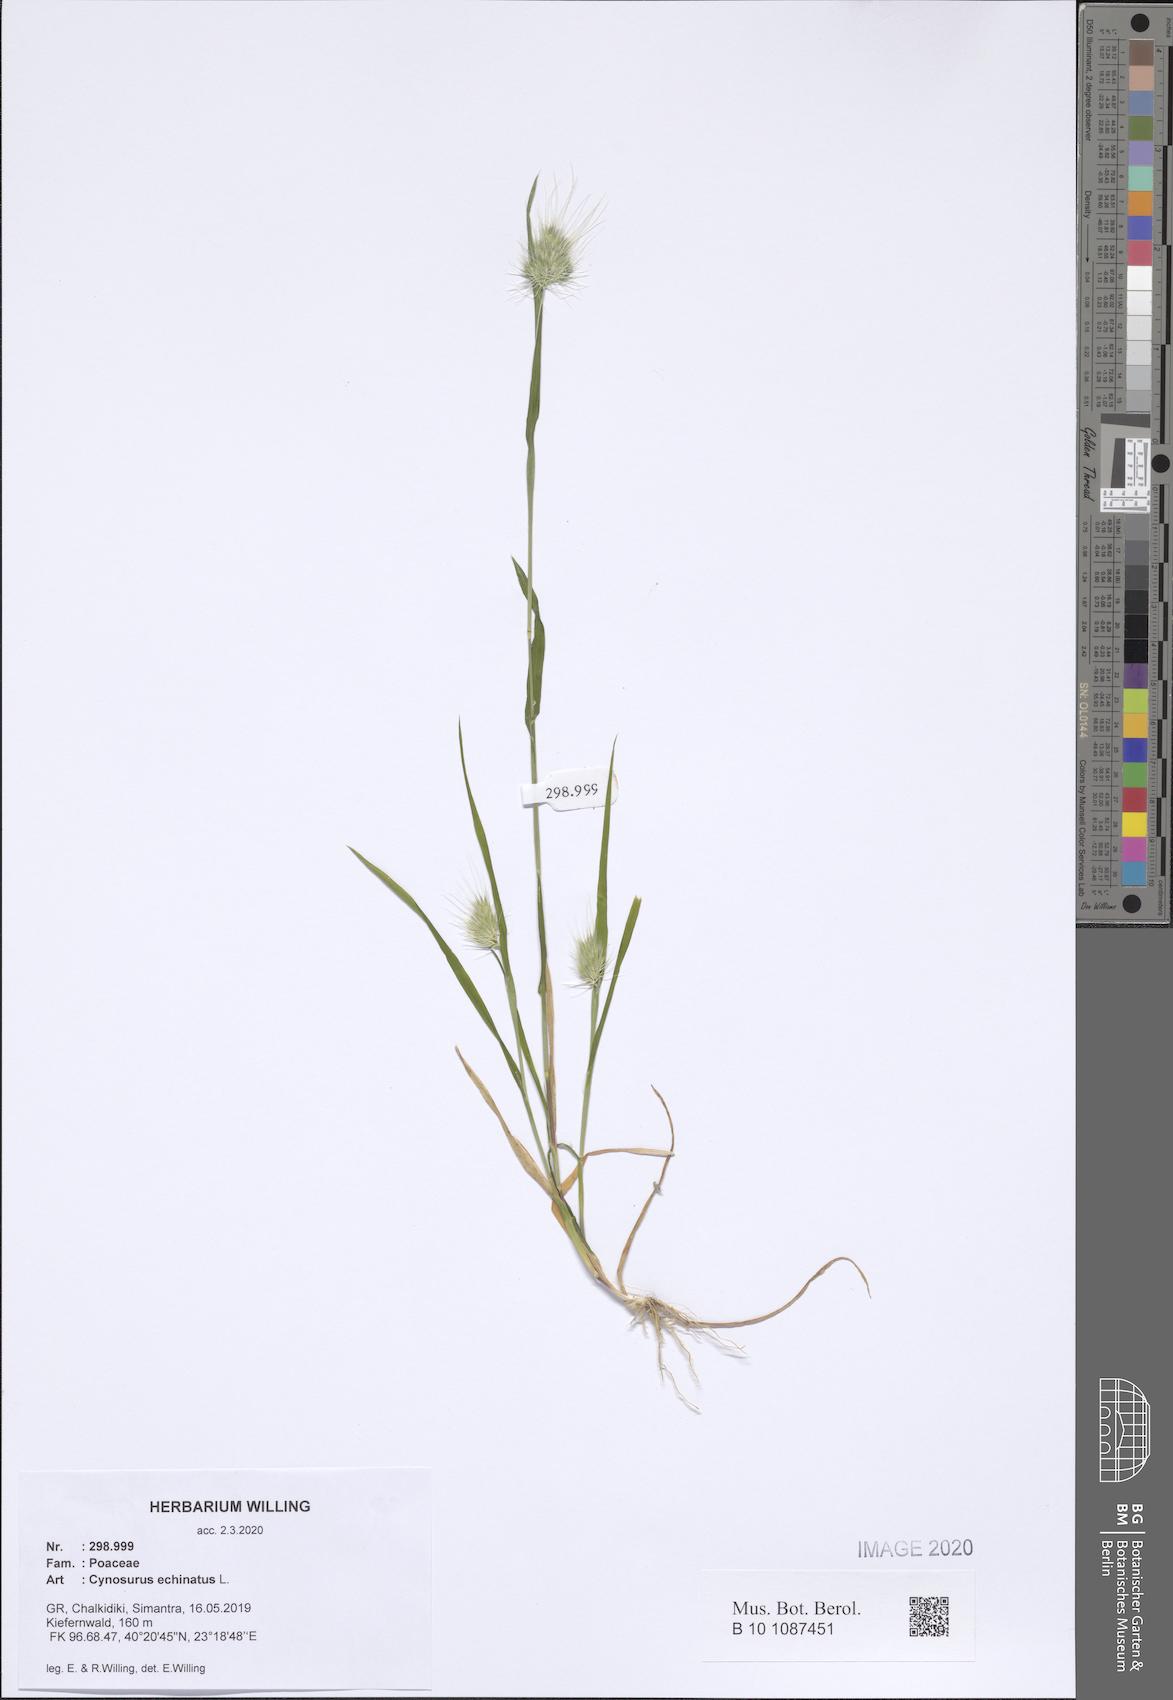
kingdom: Plantae
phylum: Tracheophyta
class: Liliopsida
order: Poales
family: Poaceae
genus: Cynosurus
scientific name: Cynosurus echinatus
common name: Rough dog's-tail
